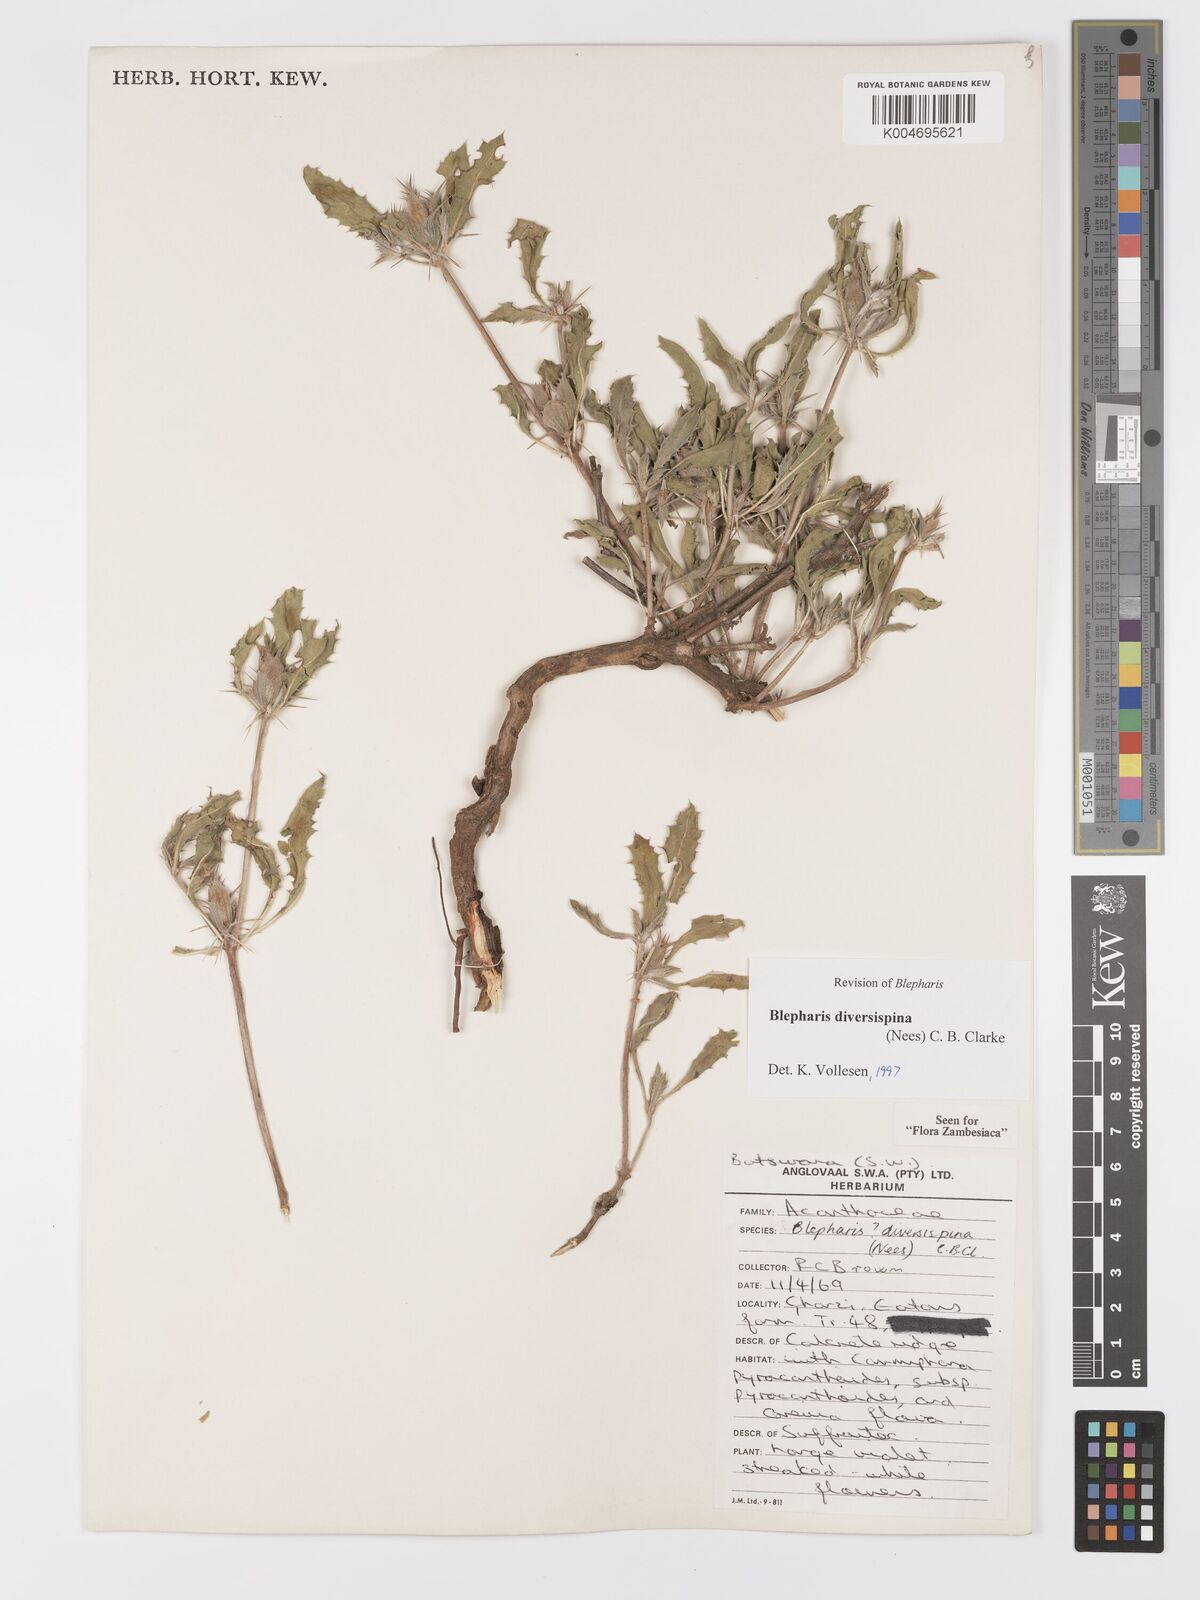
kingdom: Plantae
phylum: Tracheophyta
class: Magnoliopsida
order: Lamiales
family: Acanthaceae
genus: Blepharis
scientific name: Blepharis diversispina
